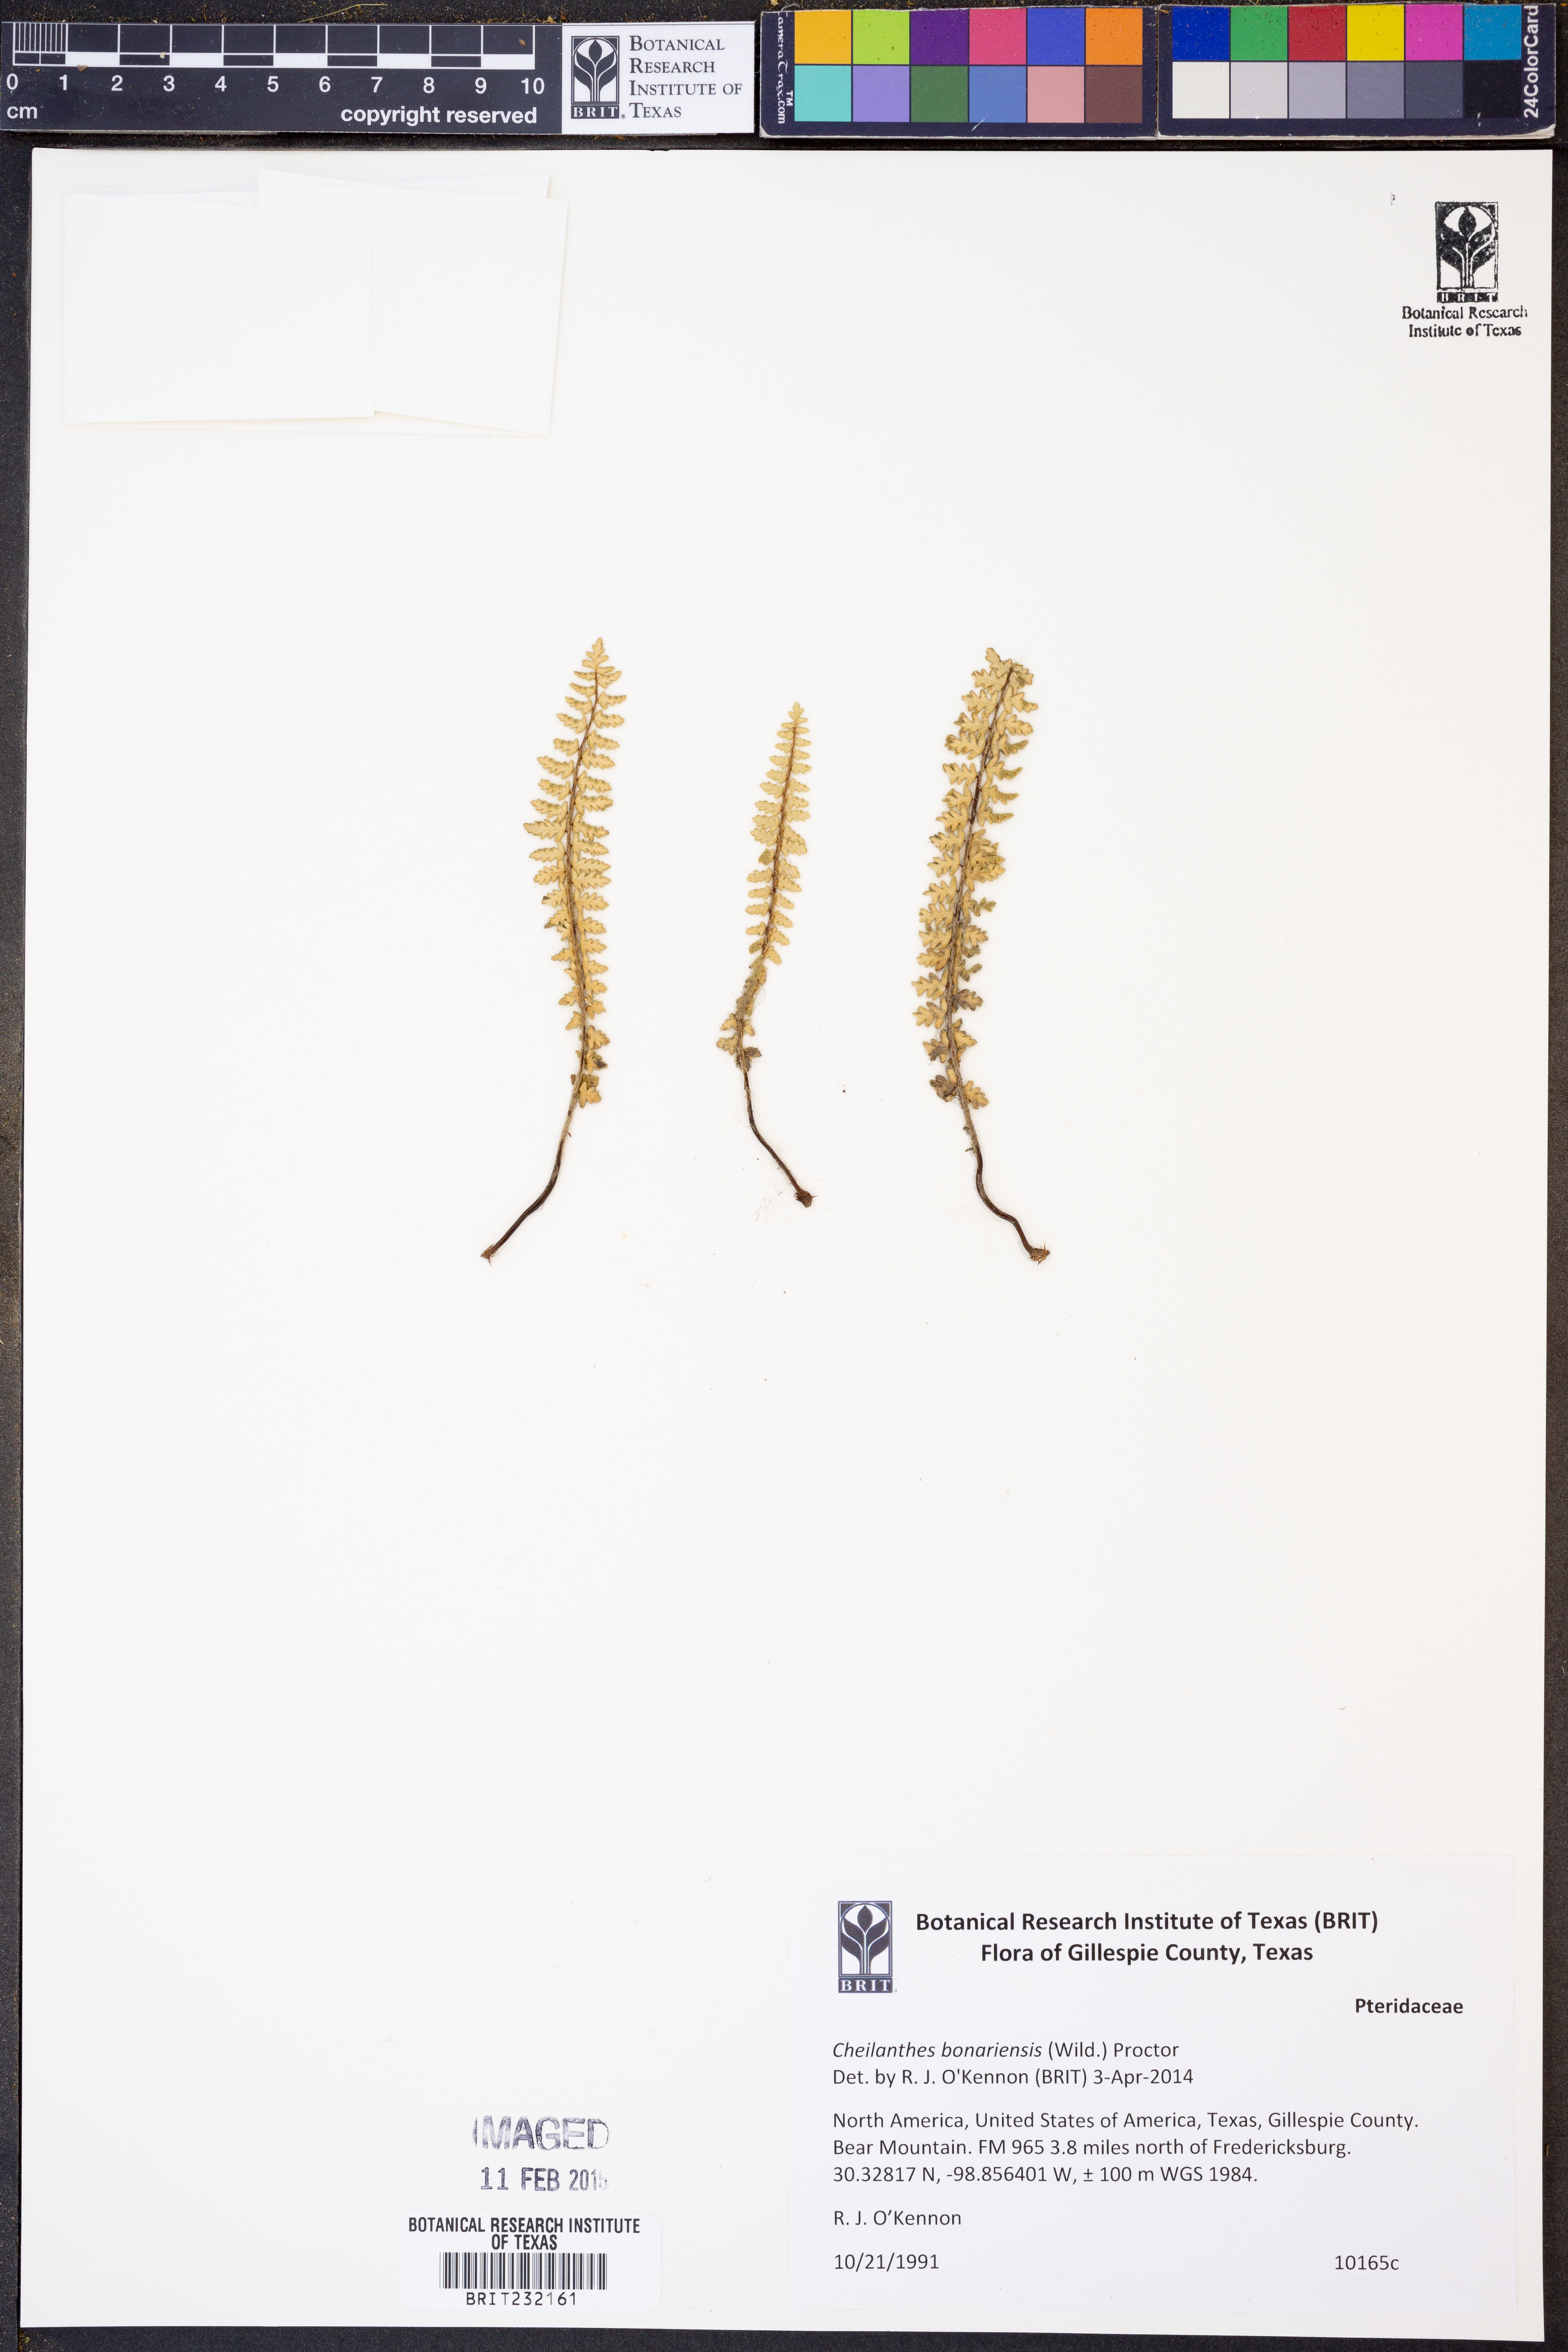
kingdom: Plantae
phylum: Tracheophyta
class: Polypodiopsida
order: Polypodiales
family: Pteridaceae
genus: Myriopteris
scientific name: Myriopteris aurea
